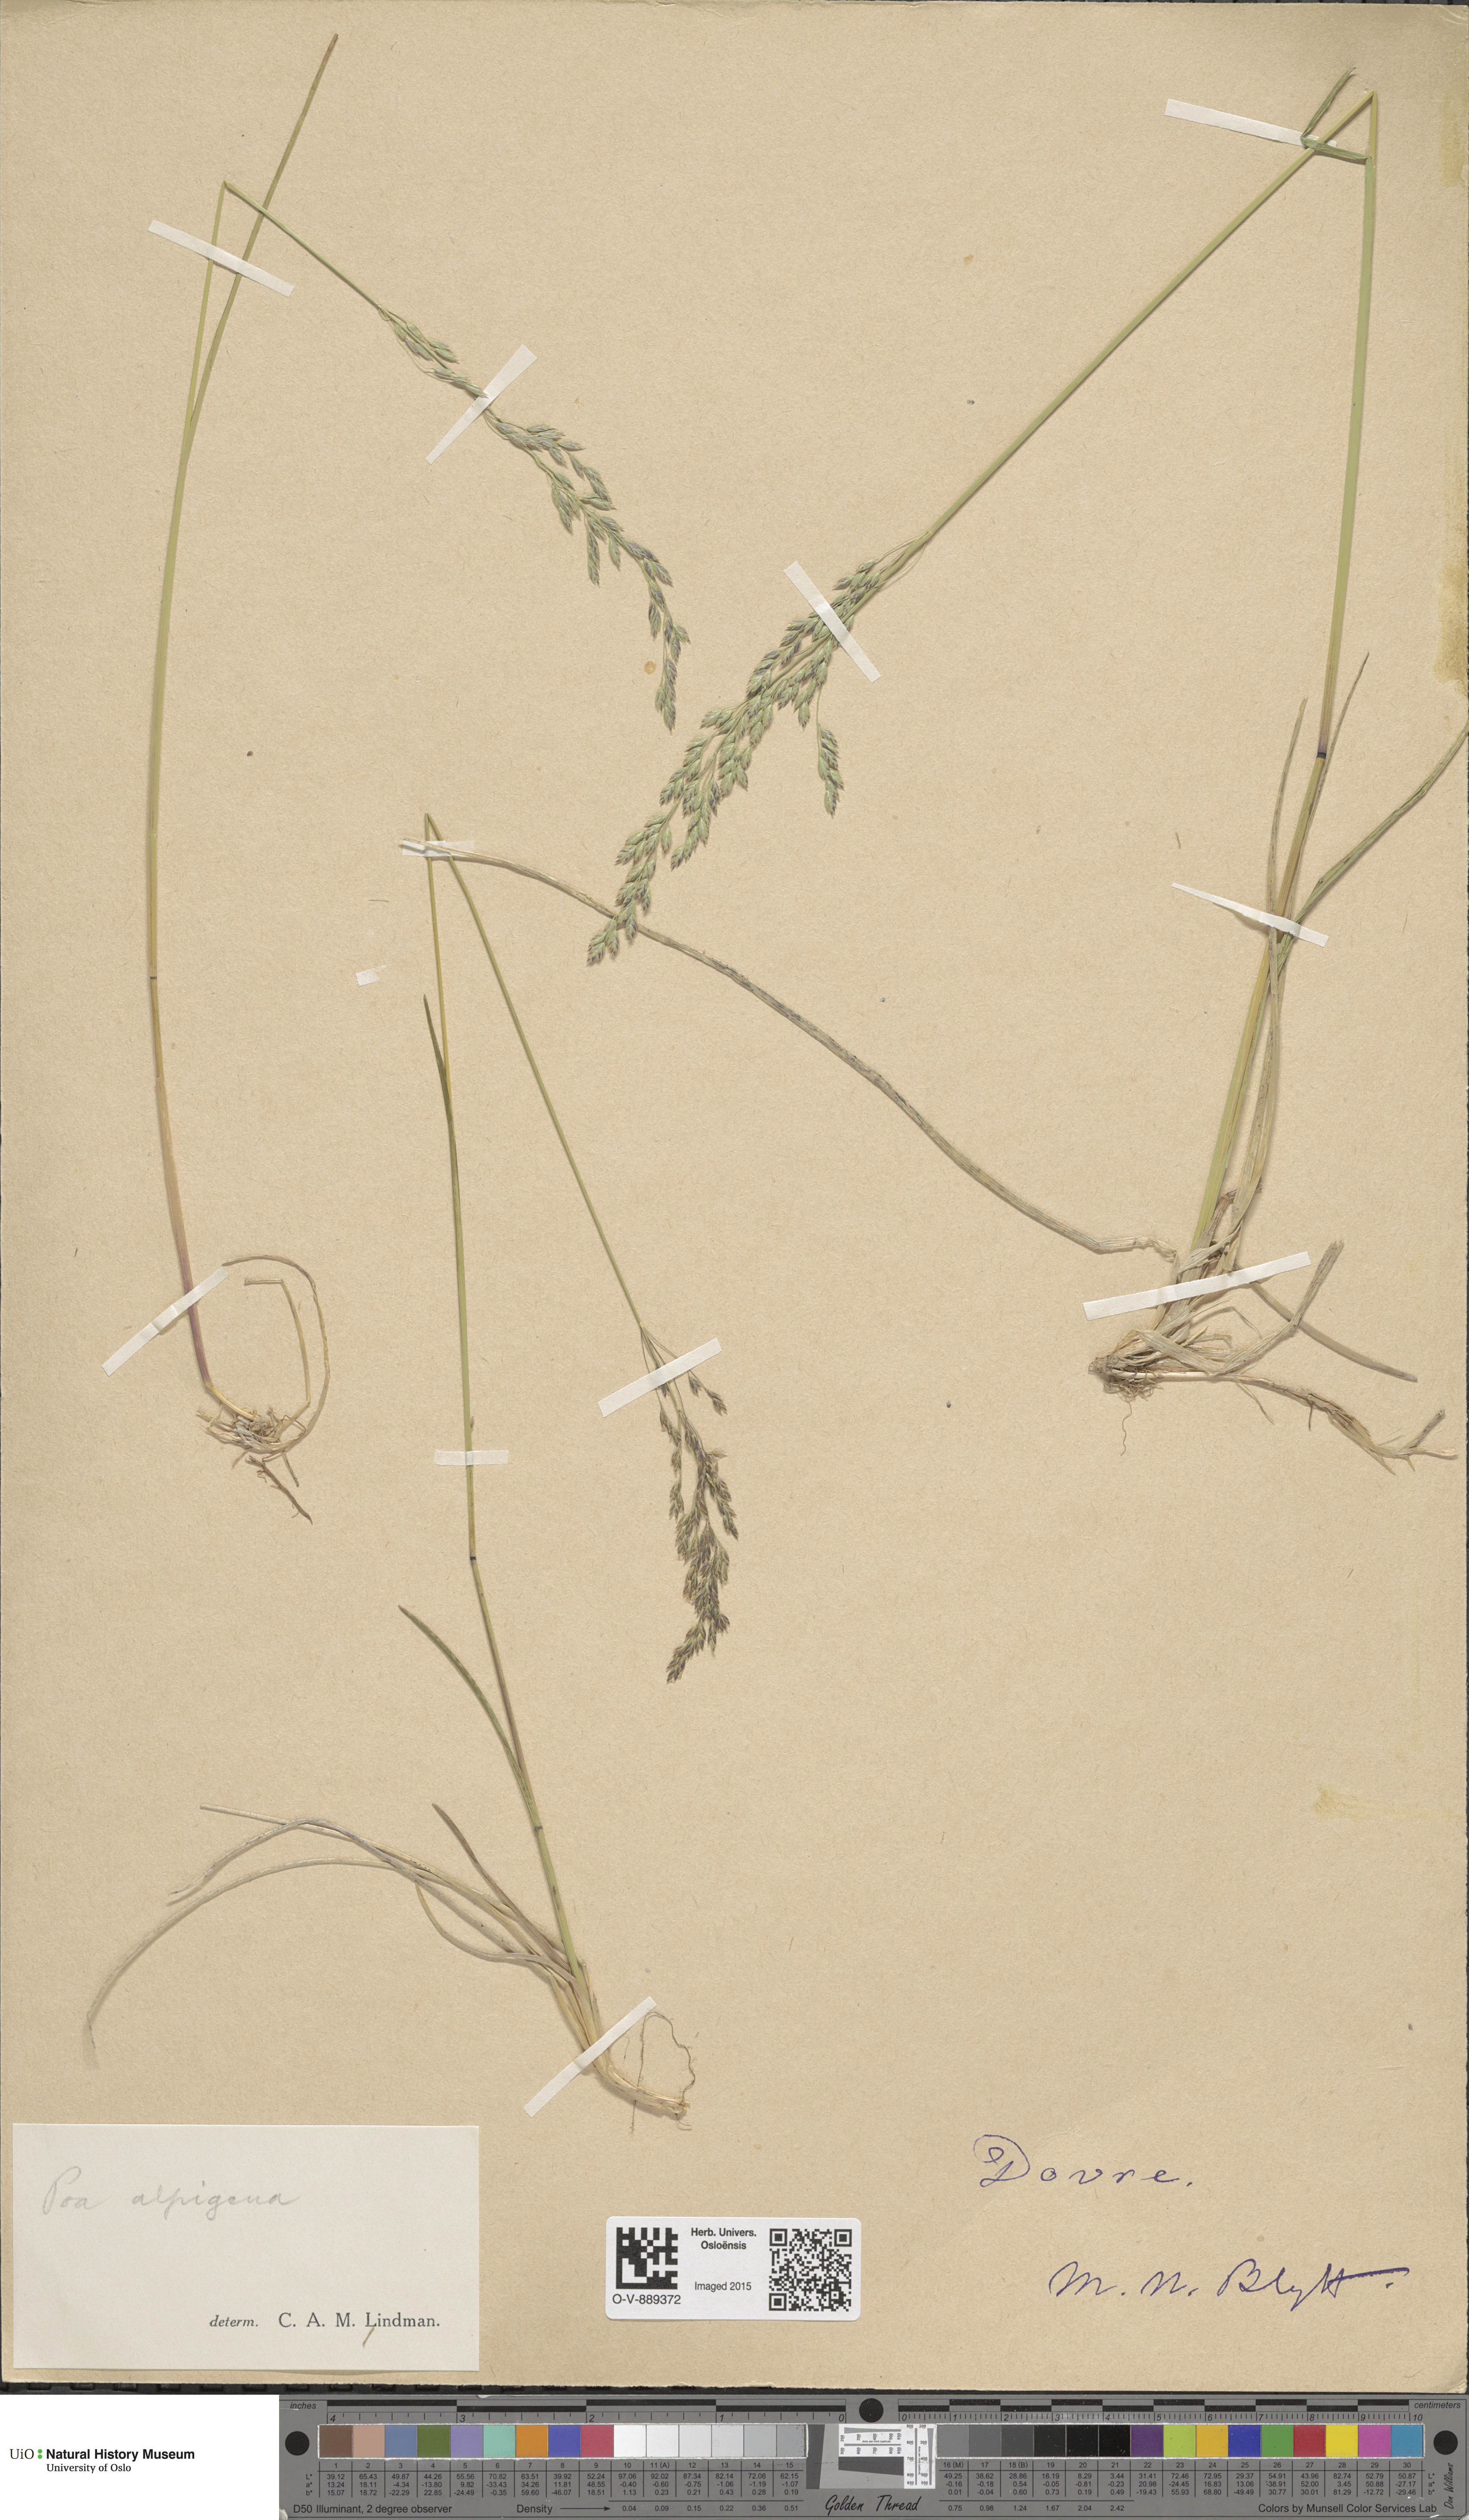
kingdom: Plantae
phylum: Tracheophyta
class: Liliopsida
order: Poales
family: Poaceae
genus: Poa
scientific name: Poa alpigena
